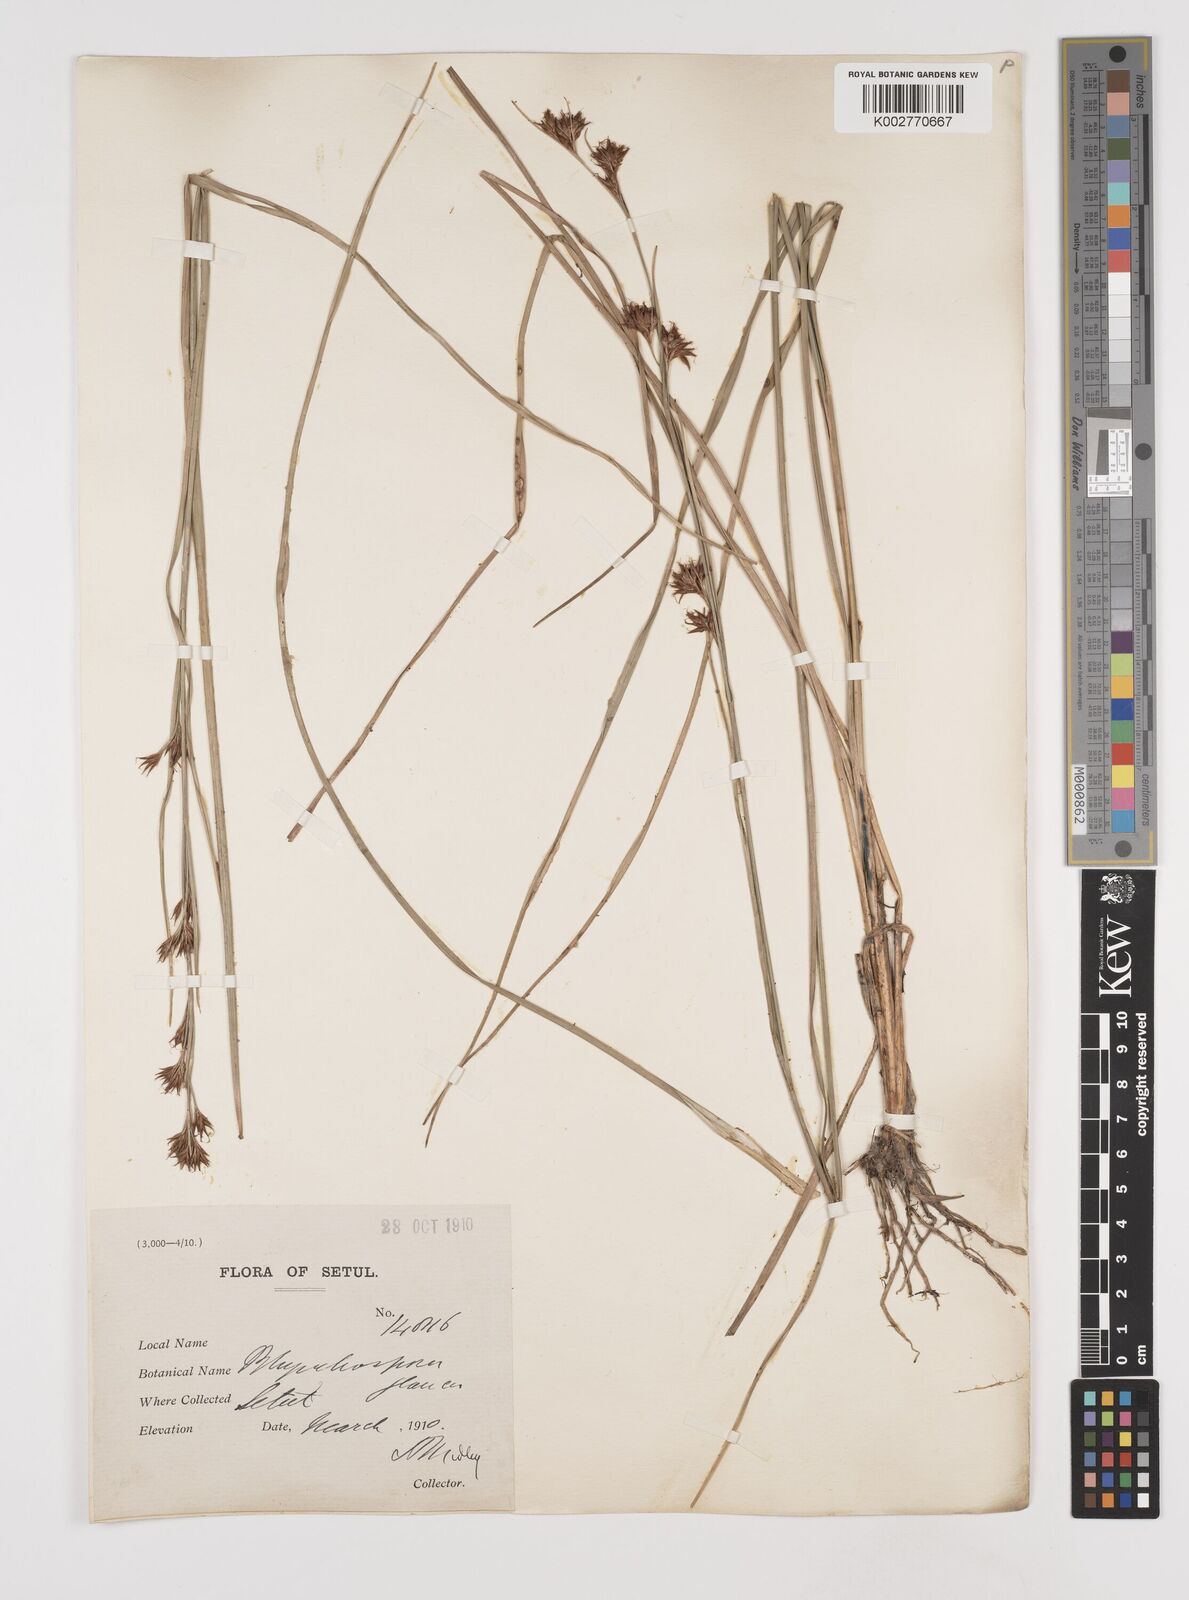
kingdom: Plantae
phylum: Tracheophyta
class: Liliopsida
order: Poales
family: Cyperaceae
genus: Rhynchospora
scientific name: Rhynchospora rugosa
